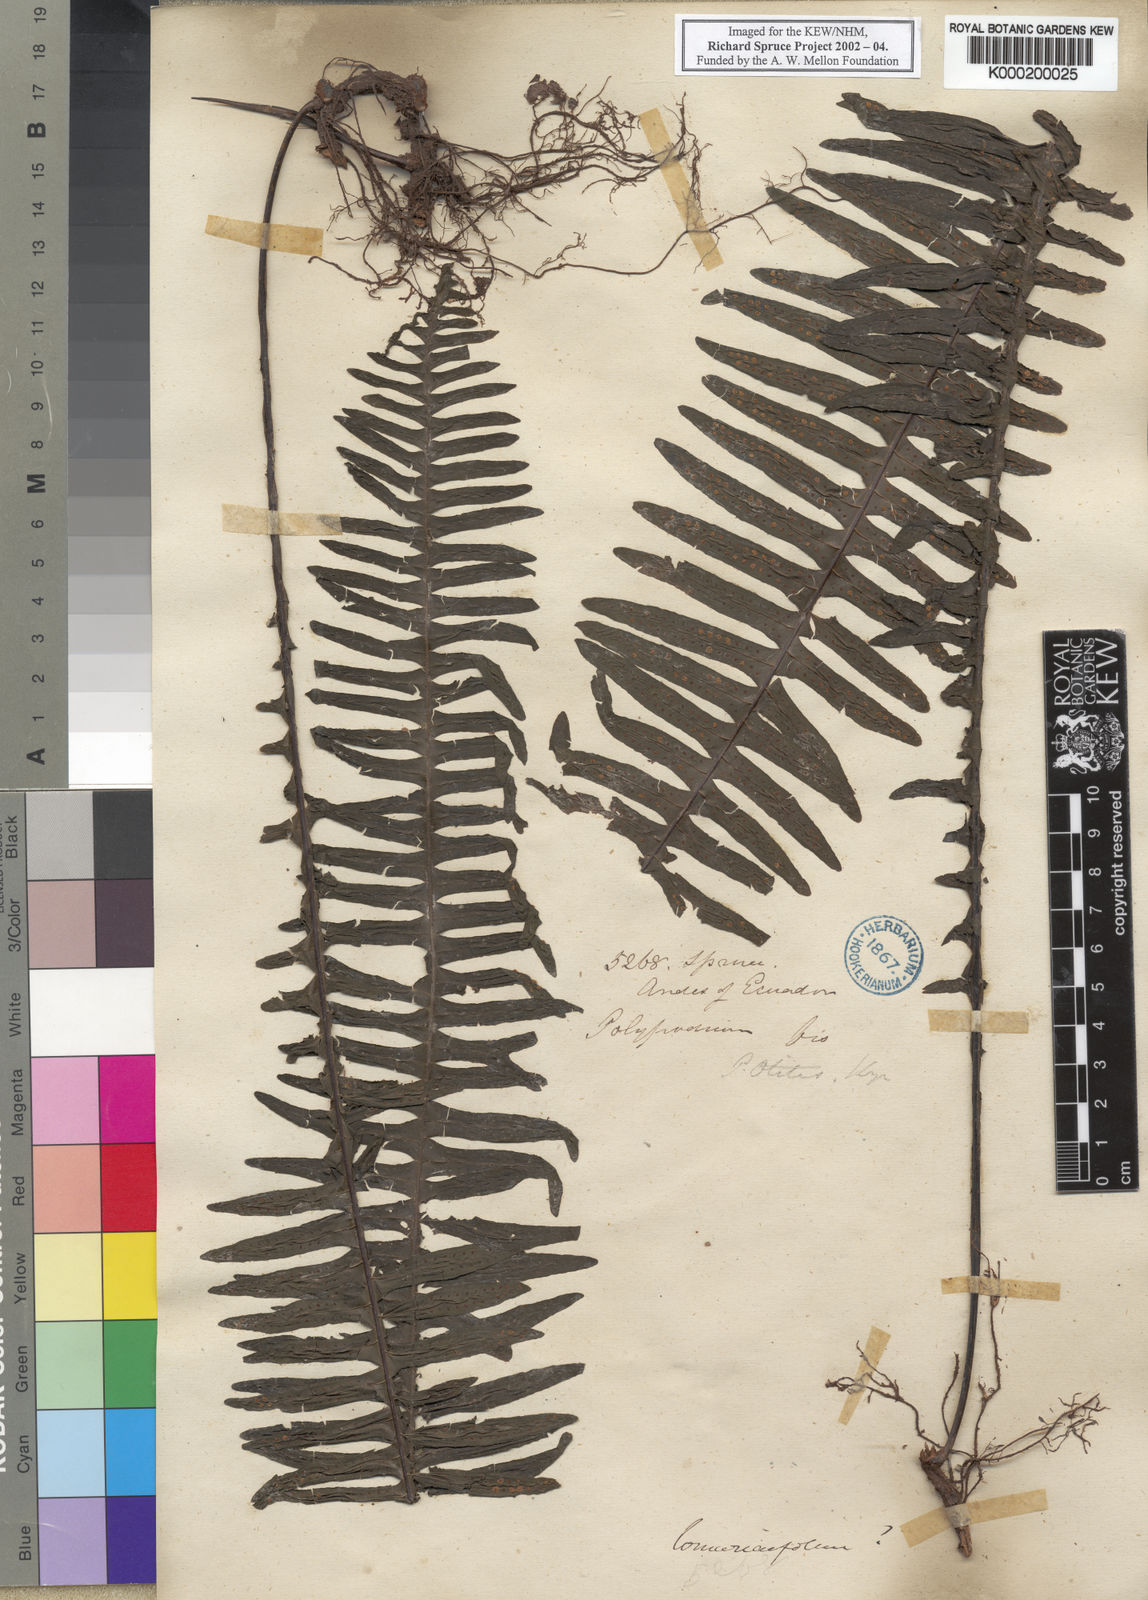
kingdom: Plantae
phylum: Tracheophyta
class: Polypodiopsida
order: Polypodiales
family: Polypodiaceae
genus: Pecluma
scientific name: Pecluma eurybasis
